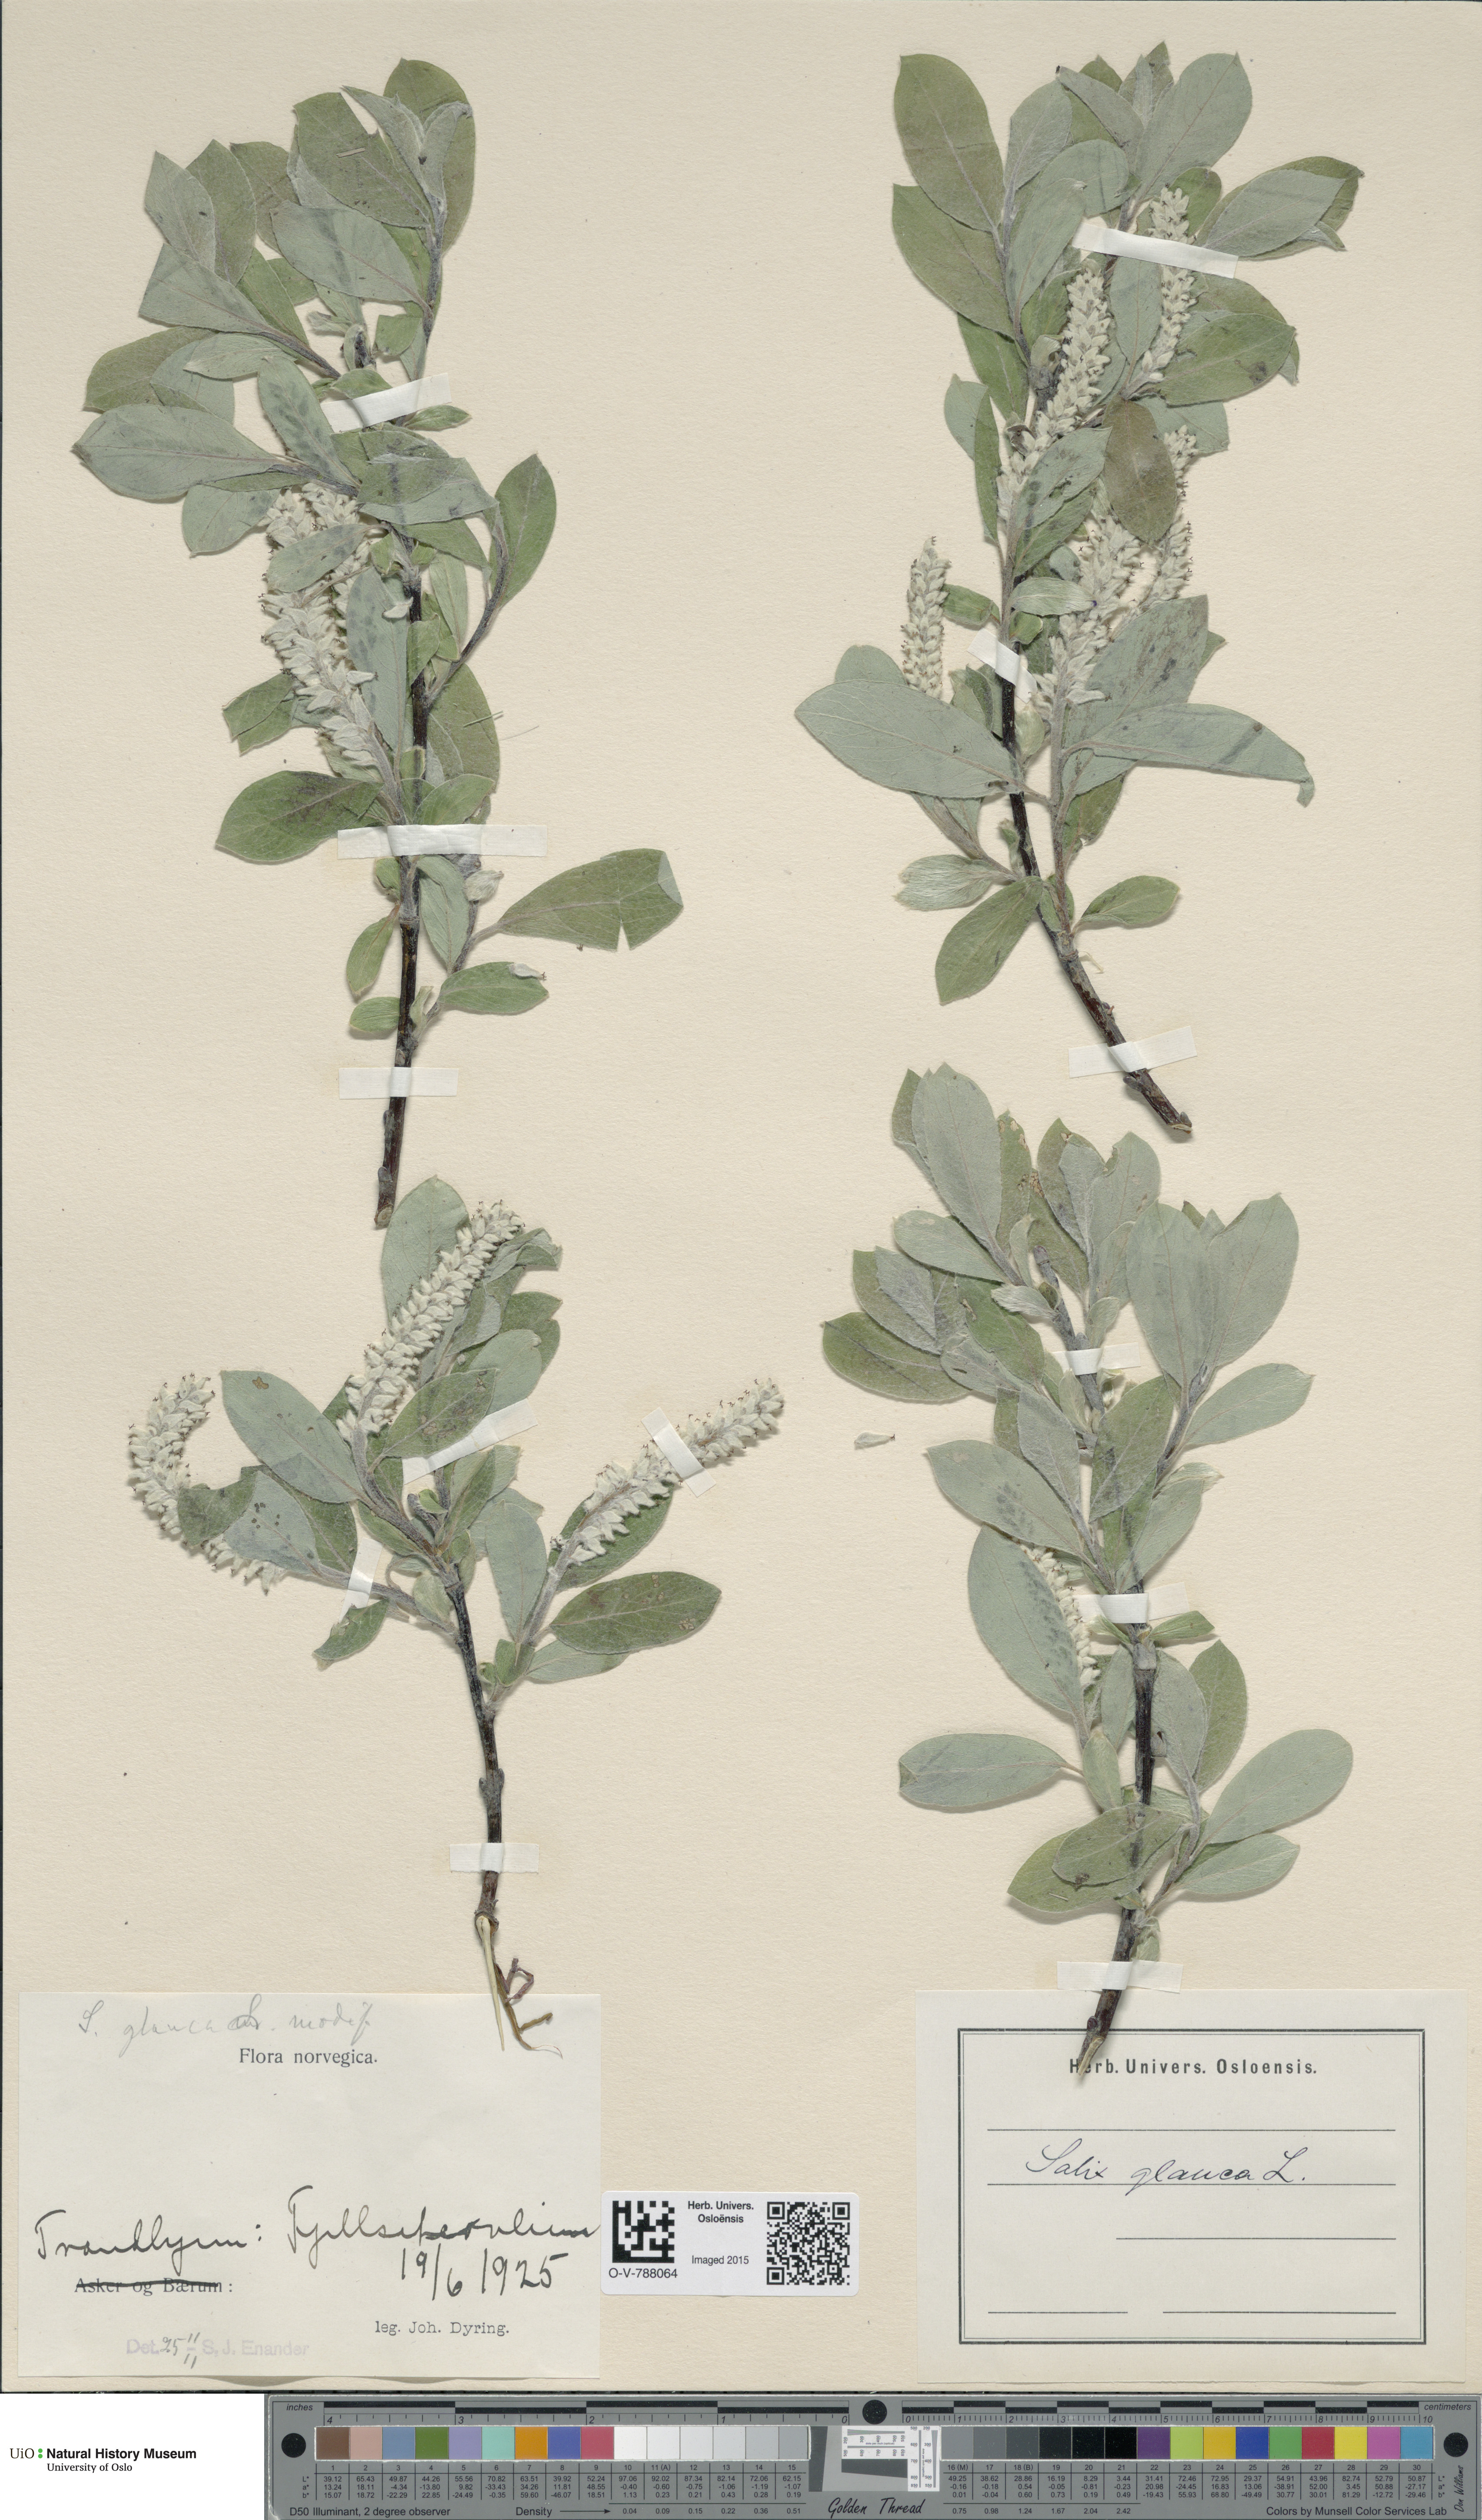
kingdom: Plantae
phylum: Tracheophyta
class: Magnoliopsida
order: Malpighiales
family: Salicaceae
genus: Salix
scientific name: Salix glauca
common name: Glaucous willow
